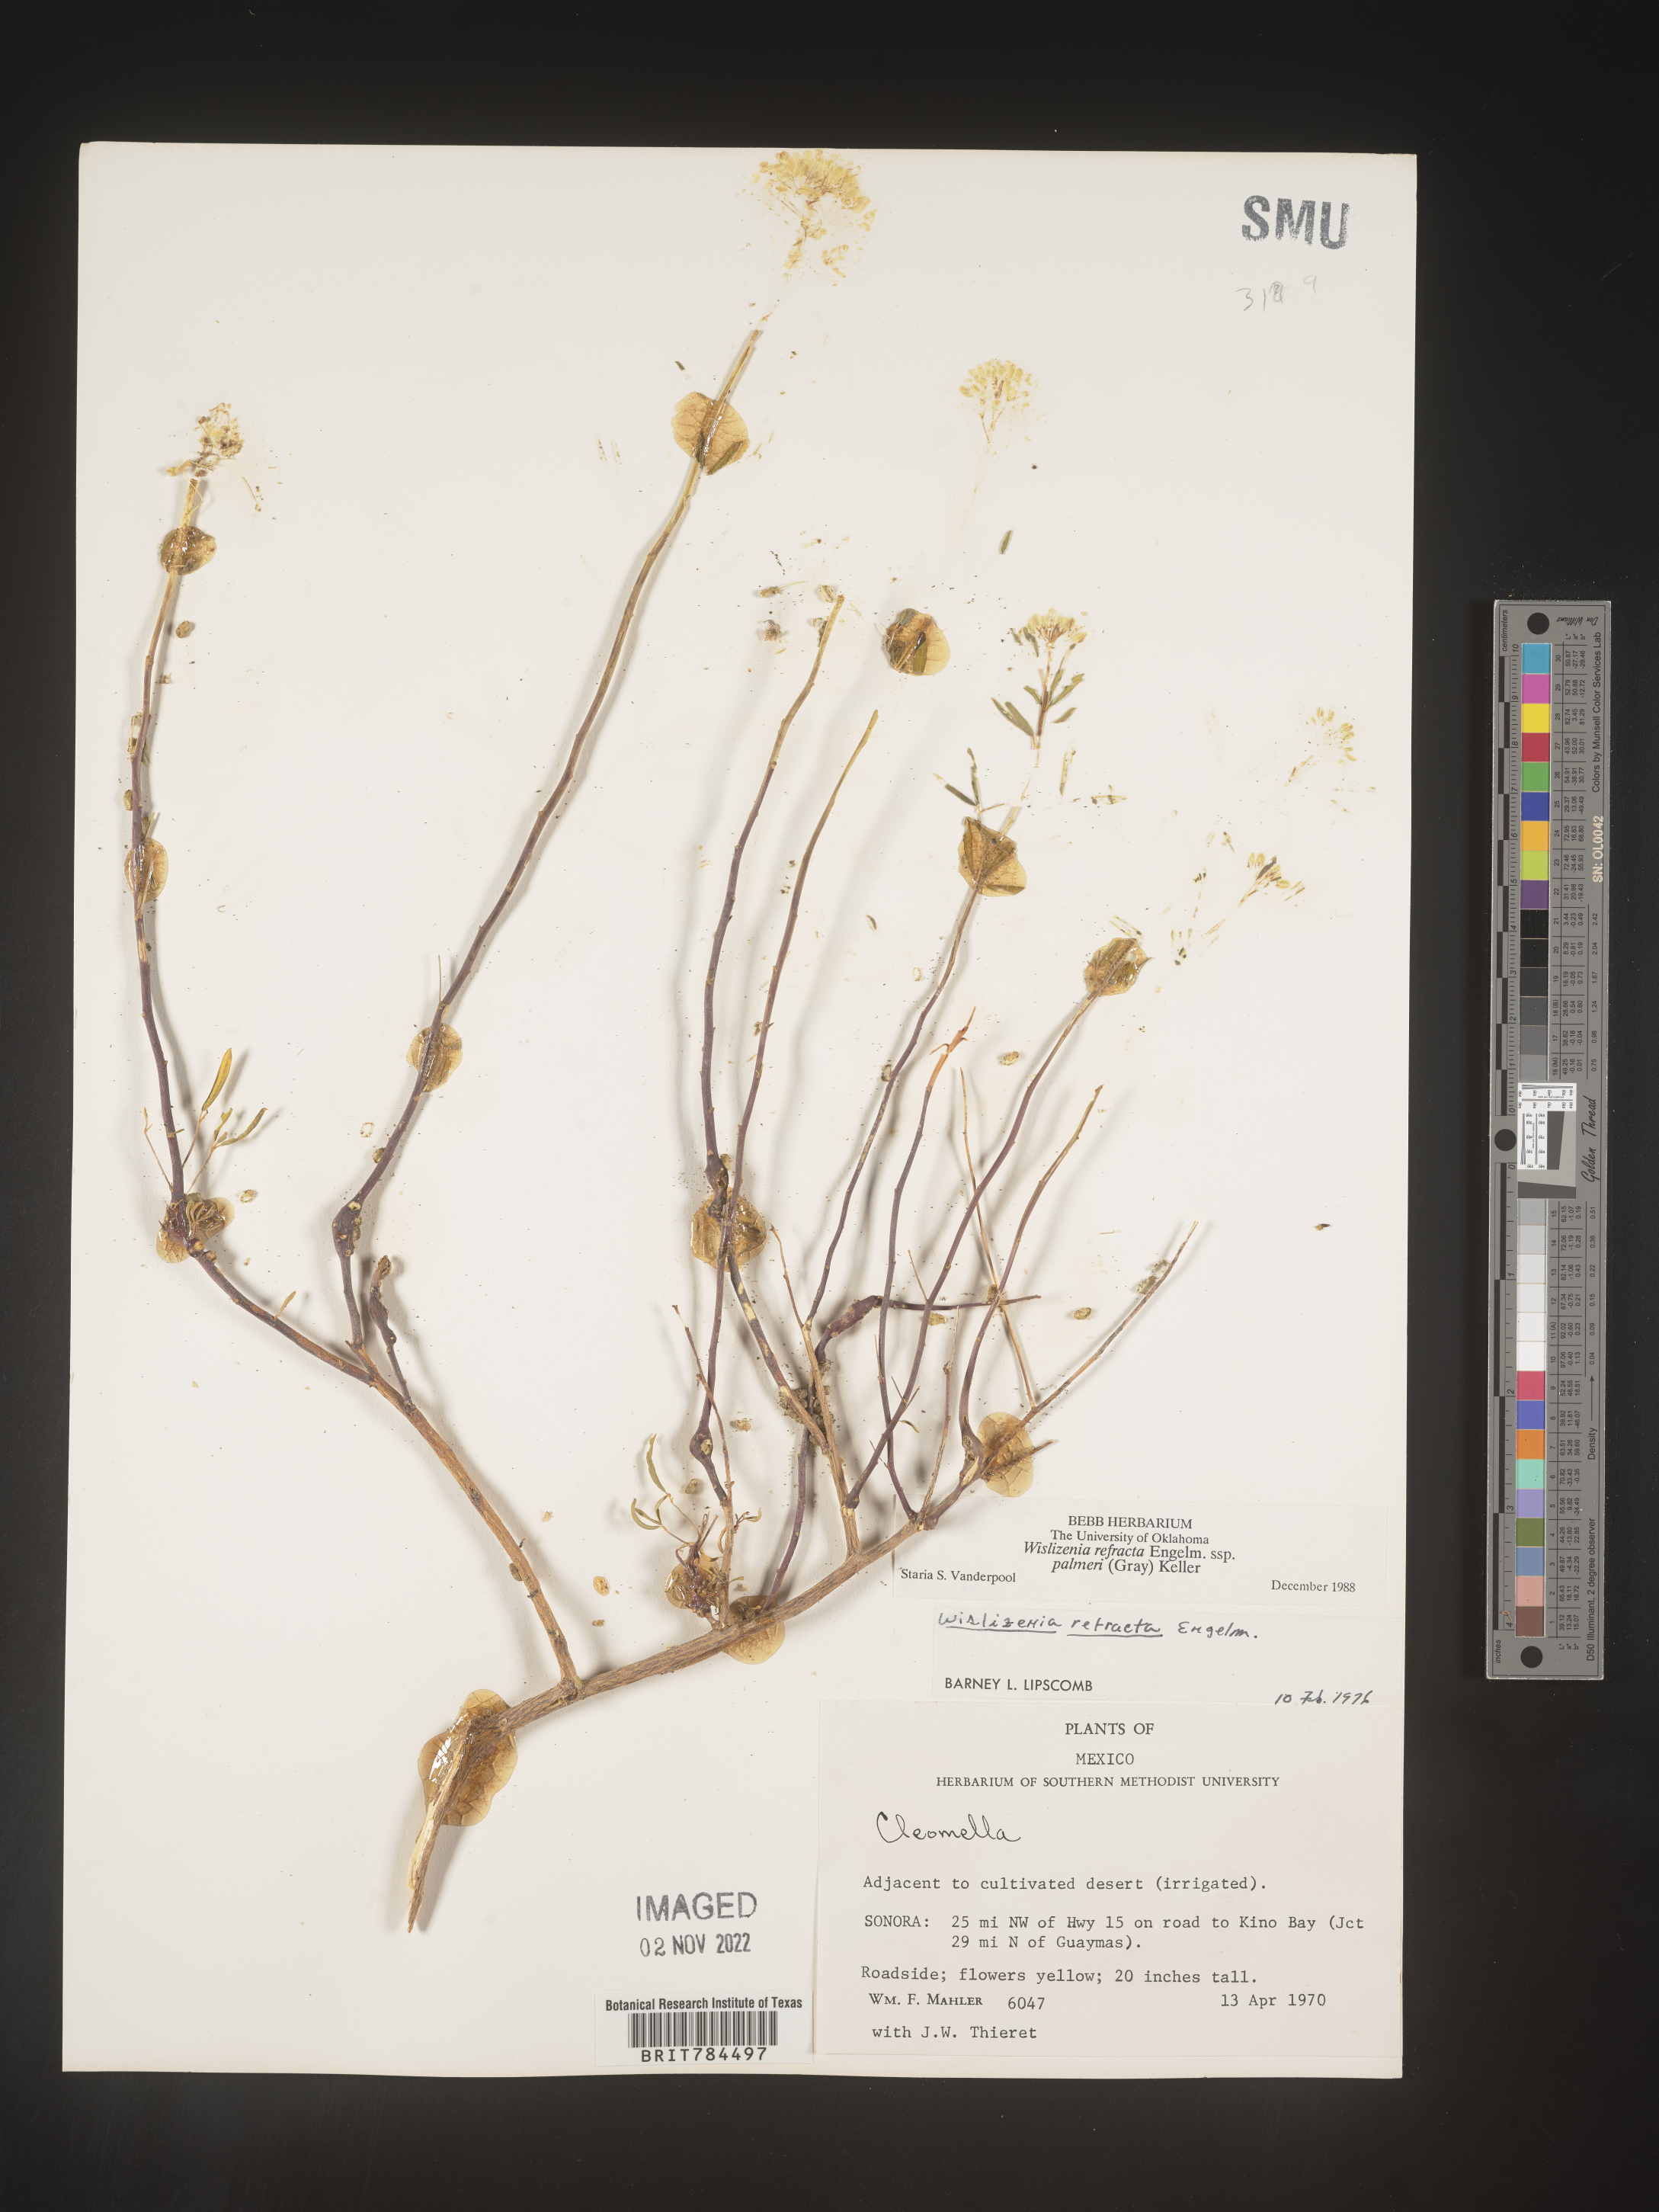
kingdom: Plantae
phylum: Tracheophyta
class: Magnoliopsida
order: Brassicales
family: Cleomaceae
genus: Cleomella
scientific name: Cleomella
